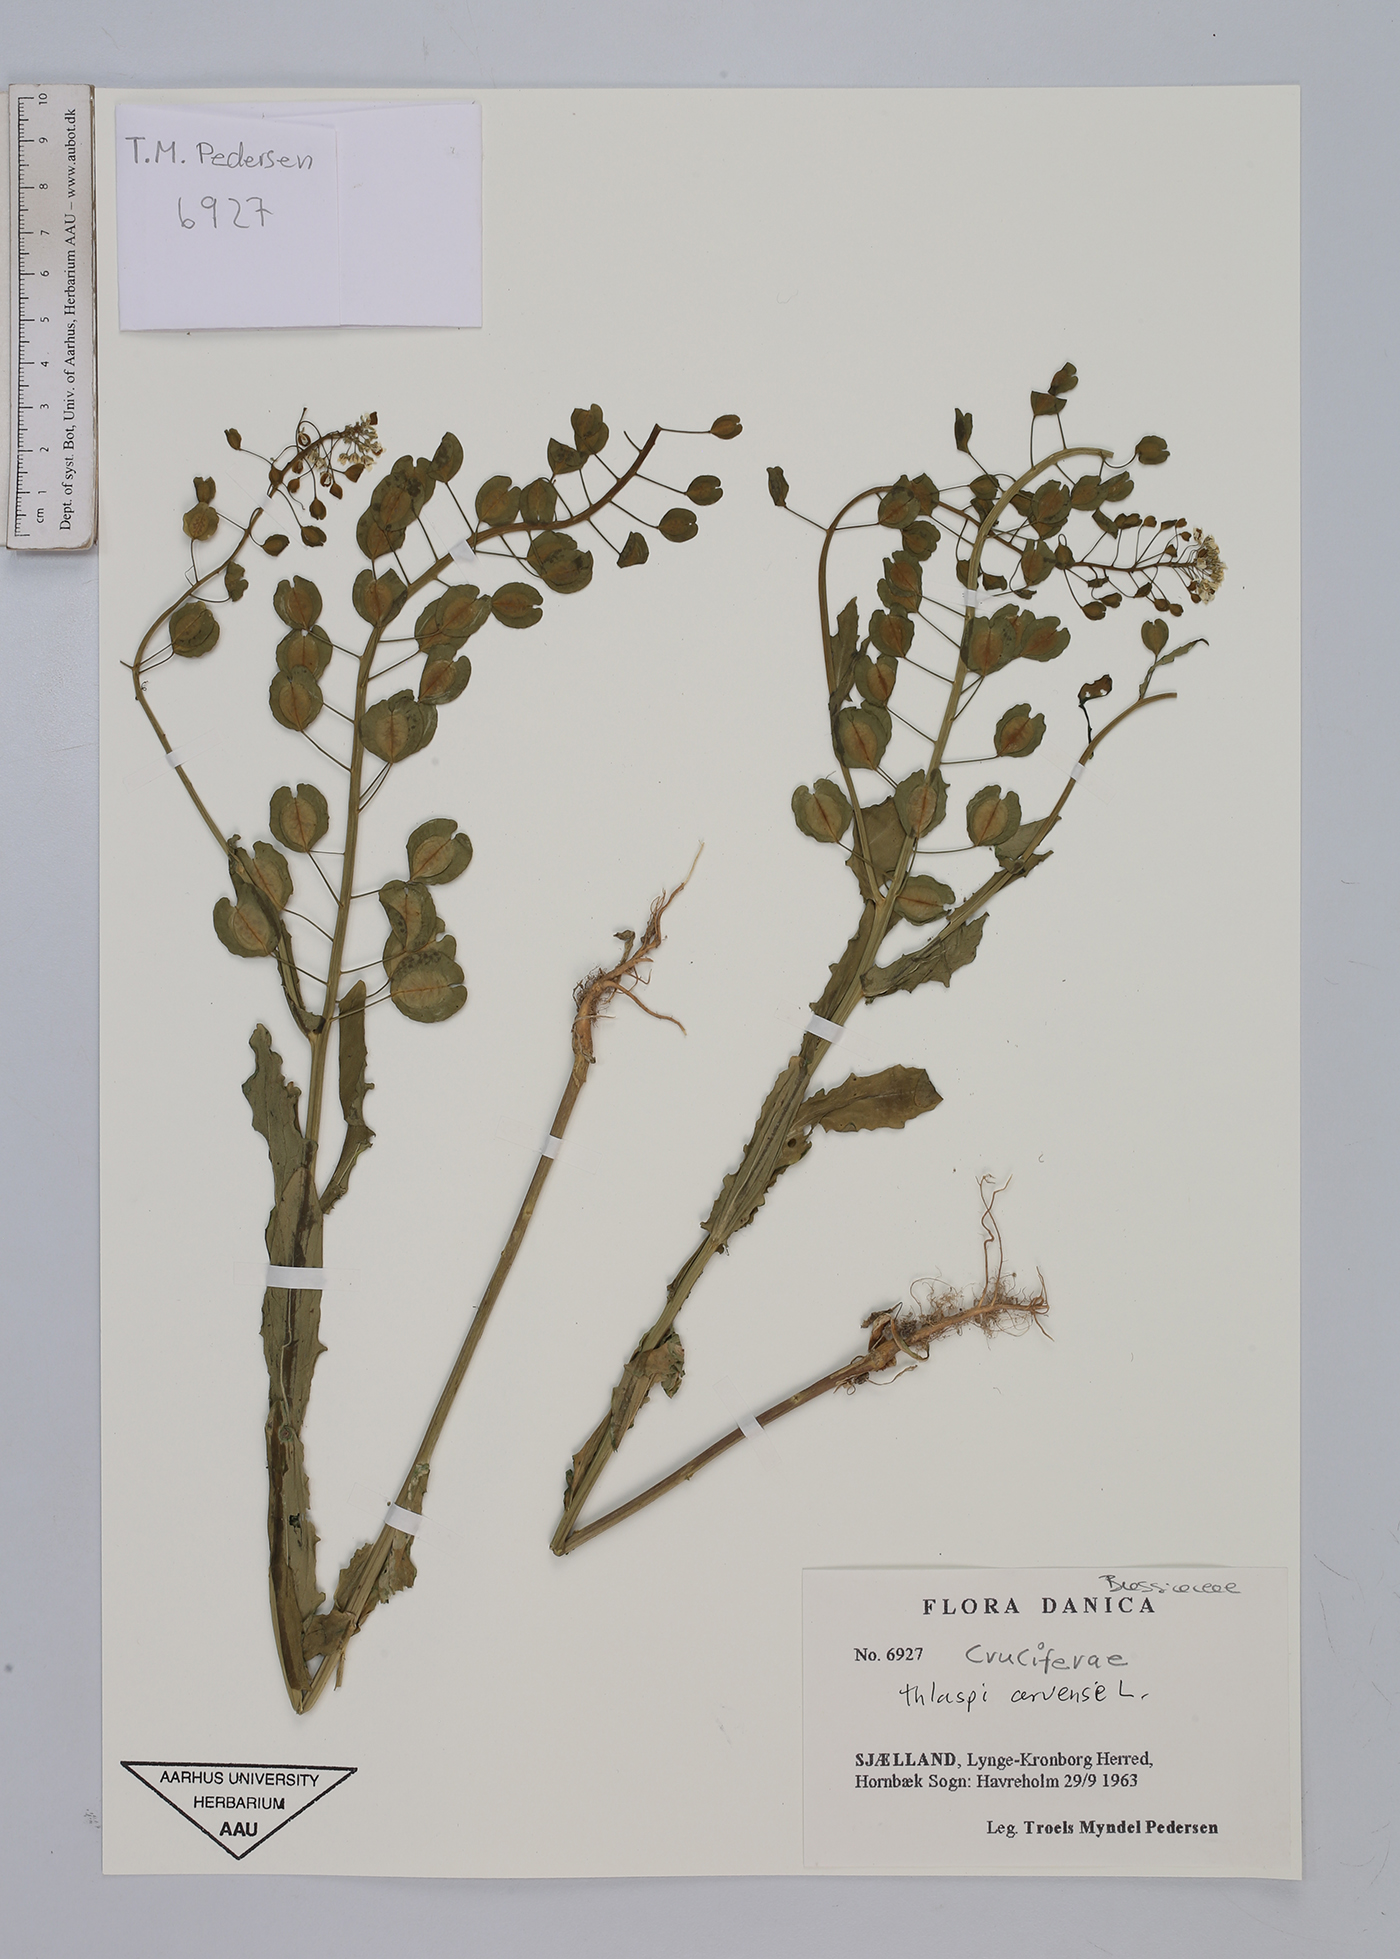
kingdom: Plantae
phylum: Tracheophyta
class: Magnoliopsida
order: Brassicales
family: Brassicaceae
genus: Thlaspi
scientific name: Thlaspi arvense
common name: Field pennycress
